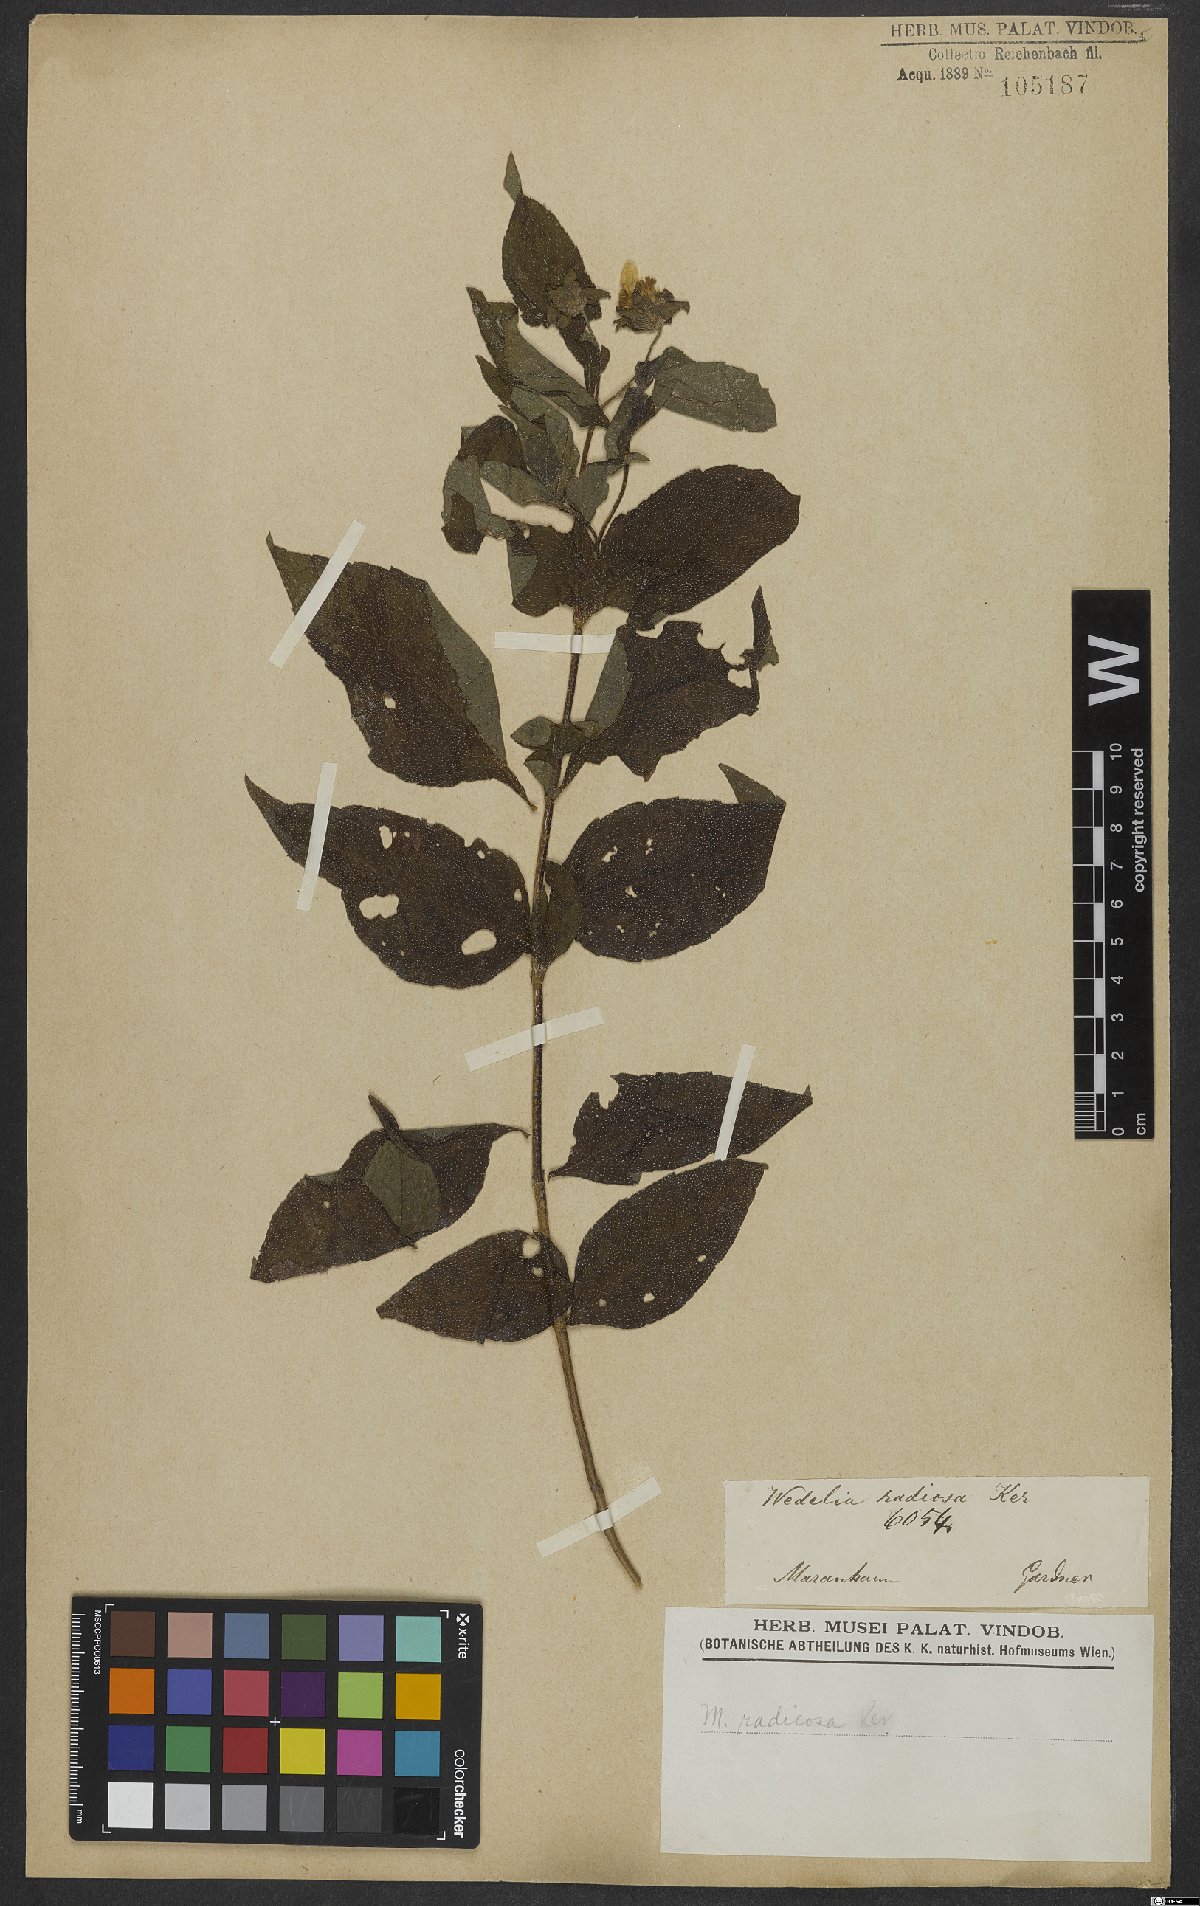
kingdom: Plantae
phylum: Tracheophyta
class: Magnoliopsida
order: Asterales
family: Asteraceae
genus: Wedelia
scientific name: Wedelia radiosa
